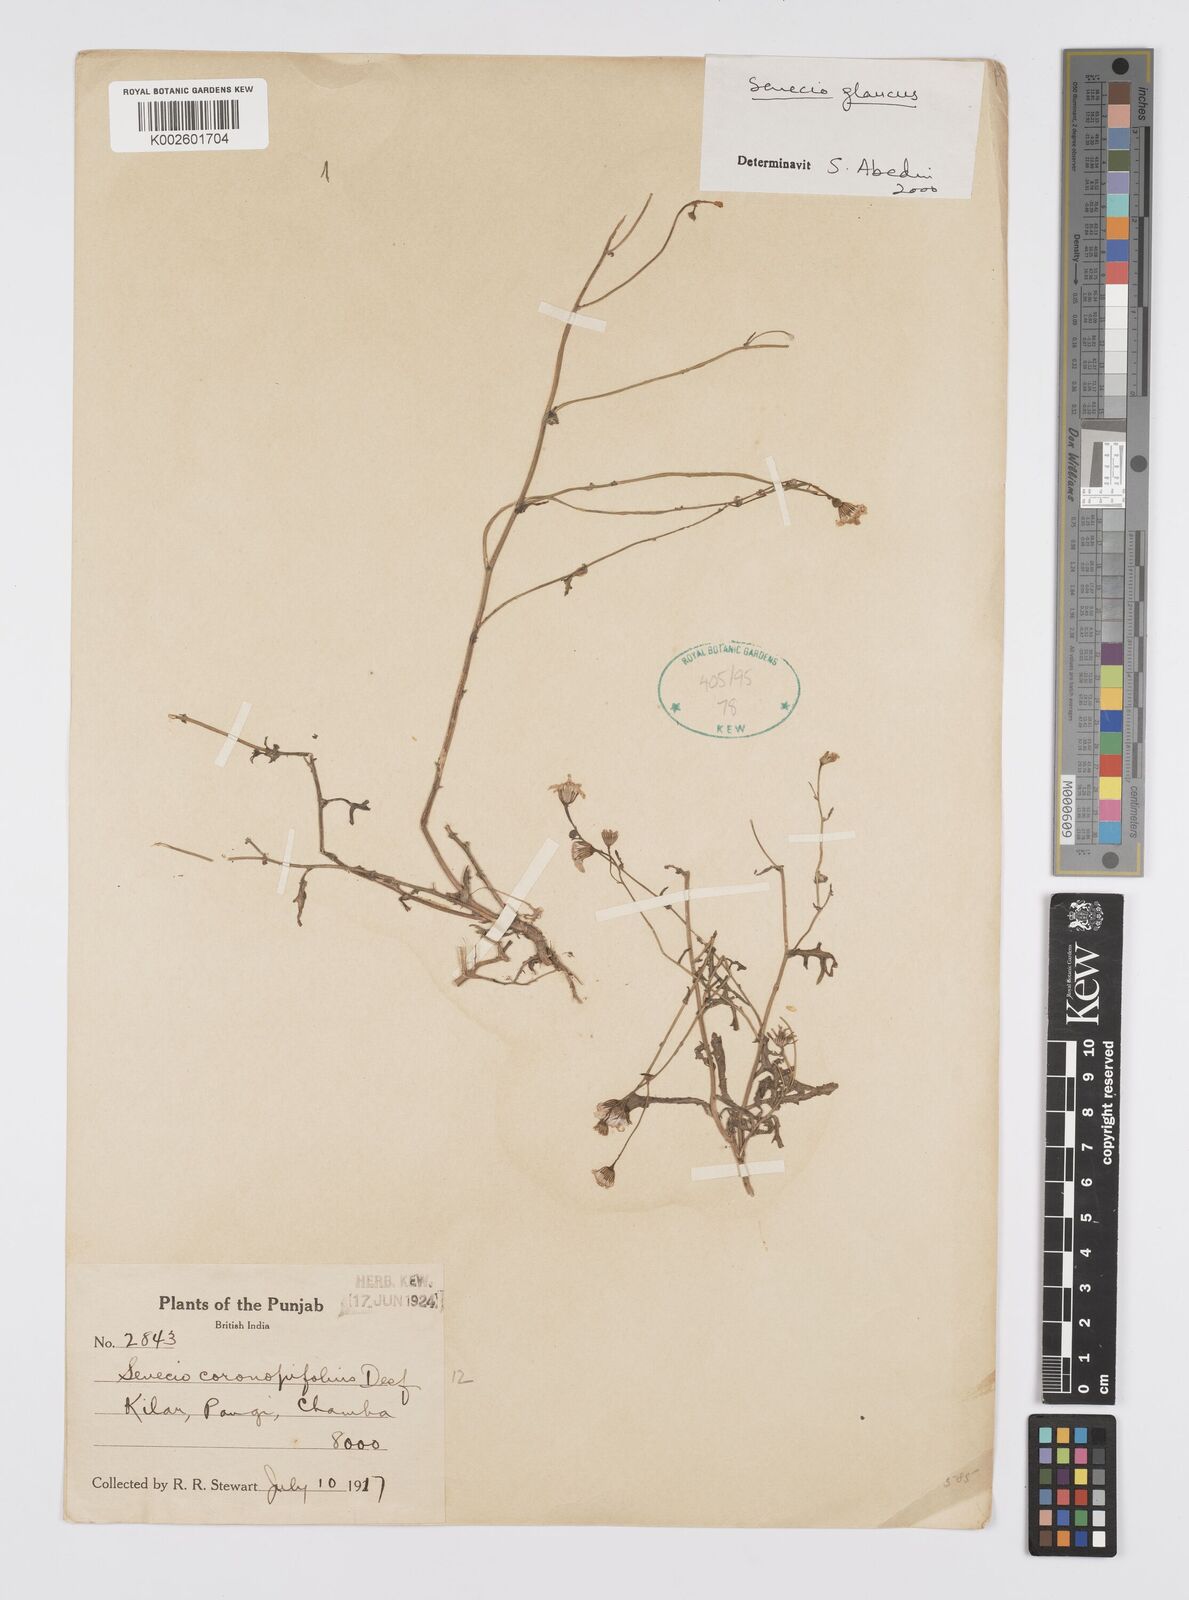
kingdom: Plantae
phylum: Tracheophyta
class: Magnoliopsida
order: Asterales
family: Asteraceae
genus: Senecio
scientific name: Senecio glaucus
